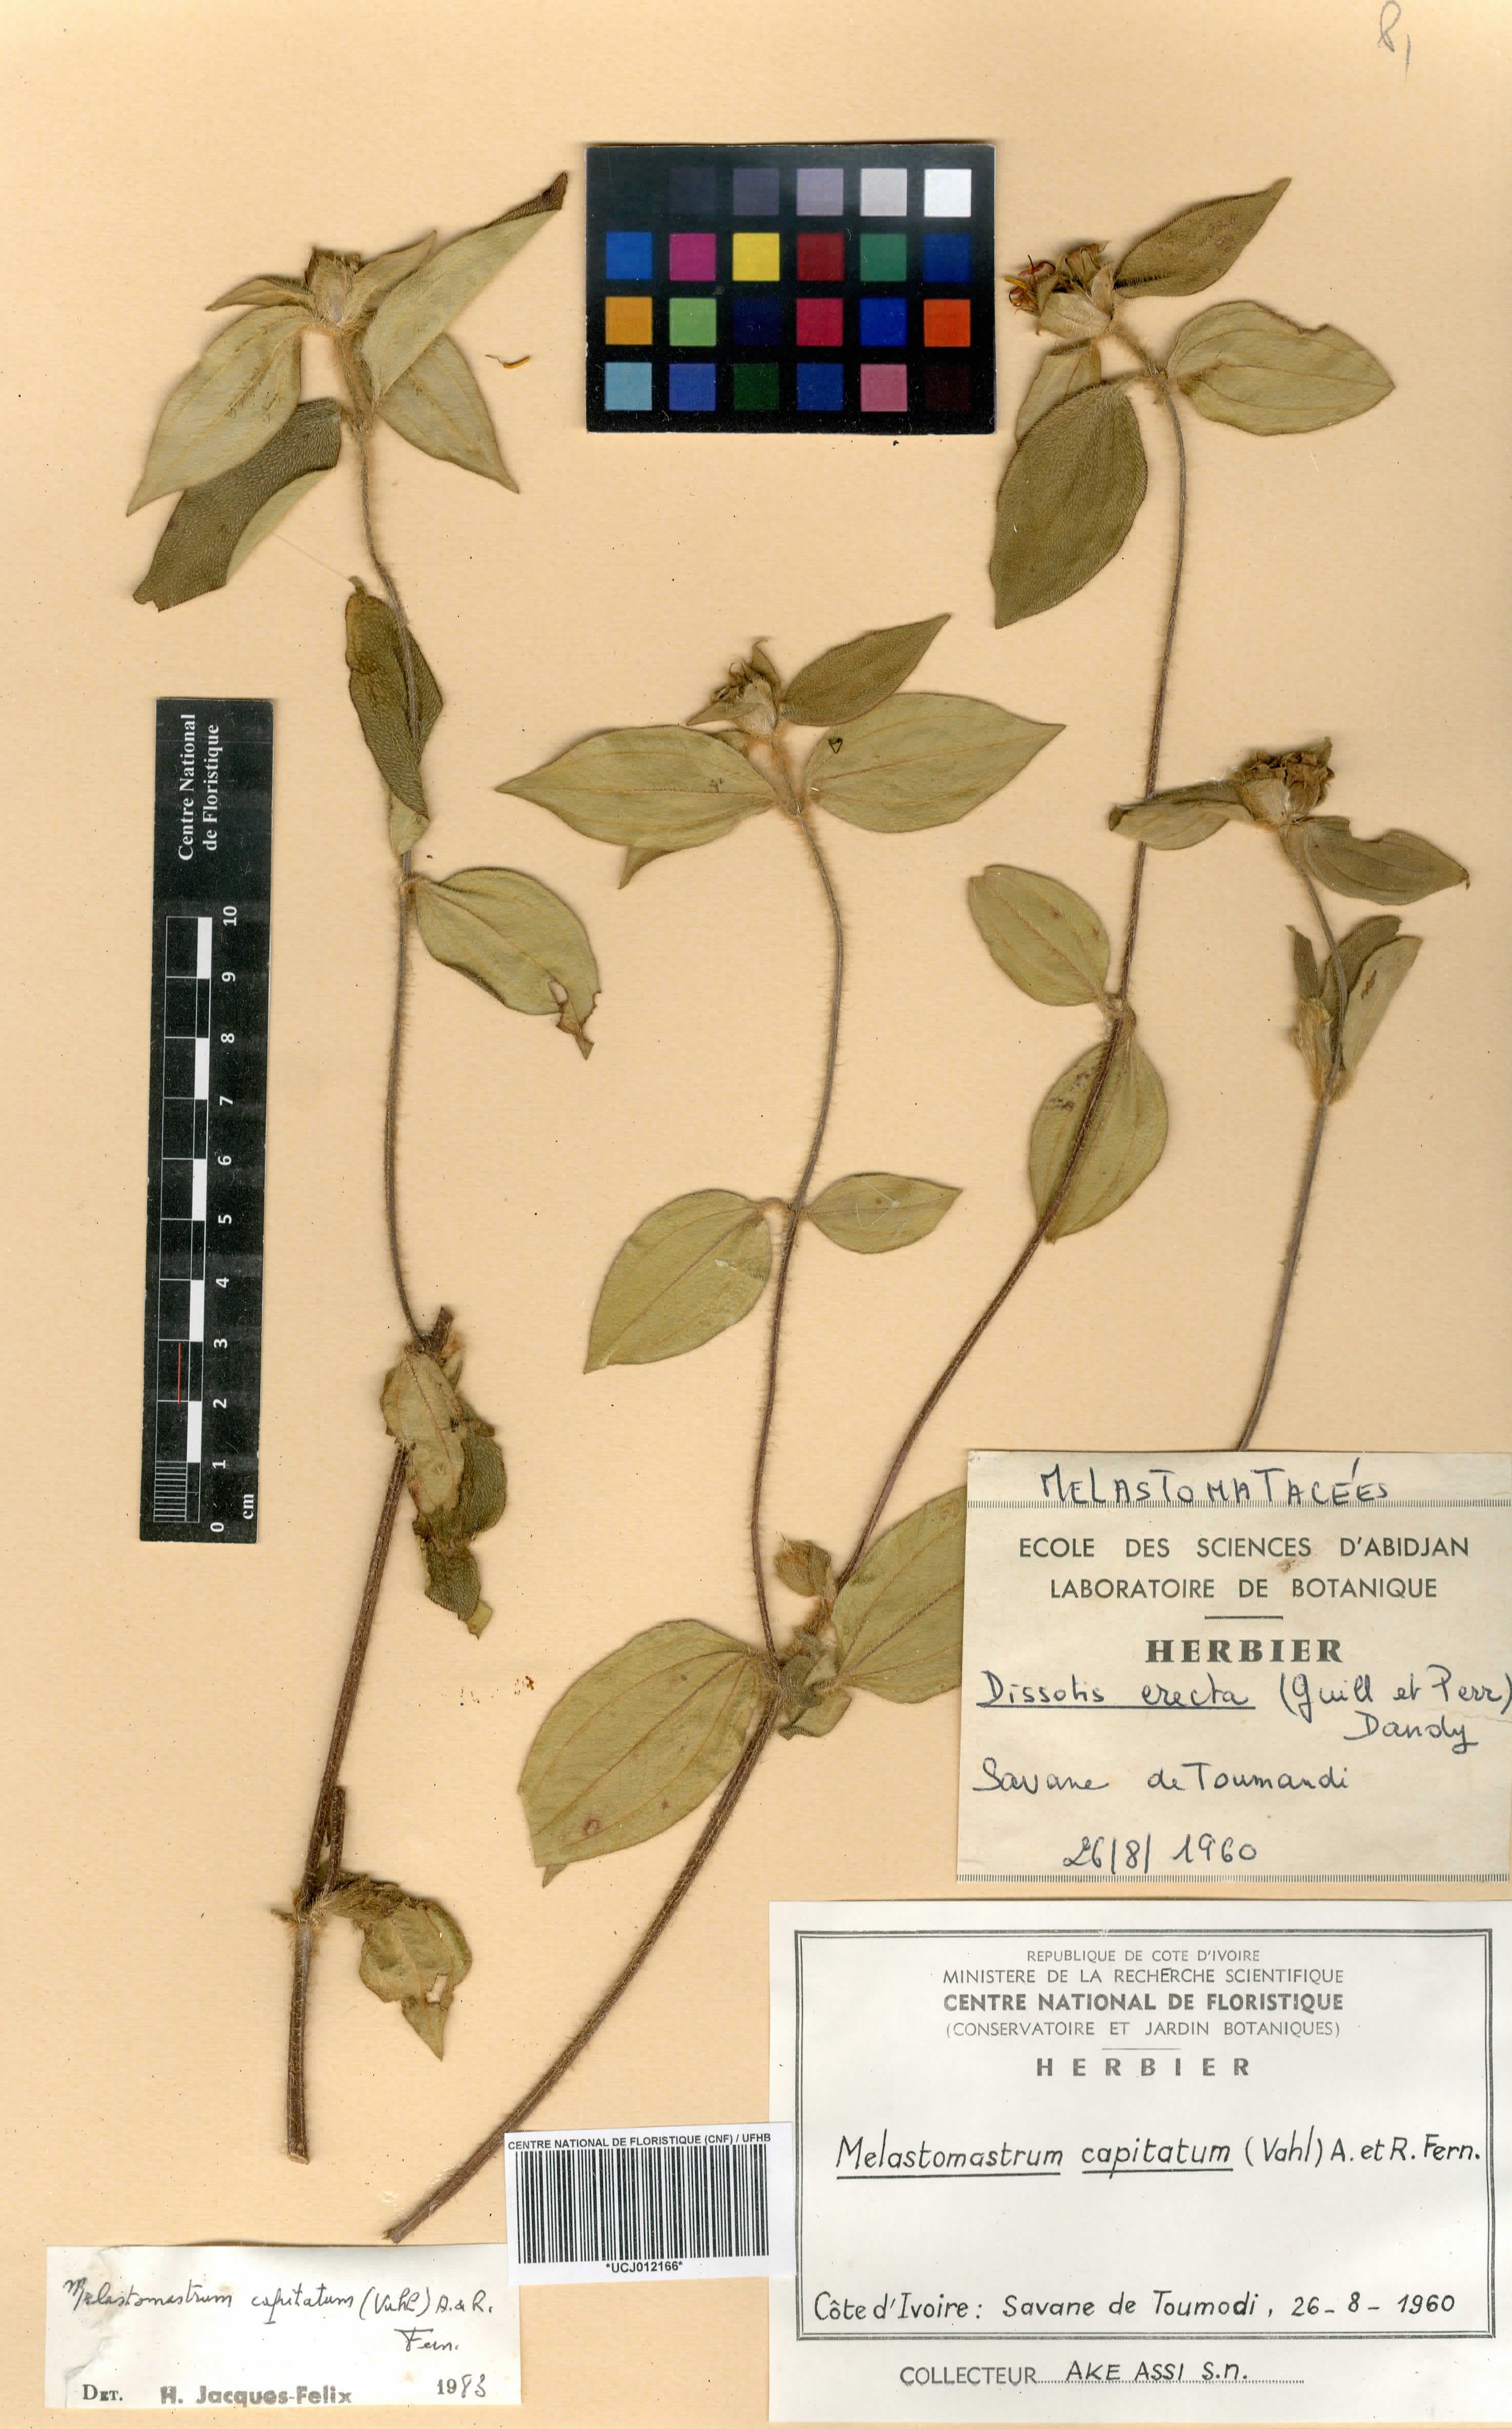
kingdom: Plantae
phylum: Tracheophyta
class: Magnoliopsida
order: Myrtales
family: Melastomataceae
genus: Melastomastrum
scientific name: Melastomastrum capitatum
